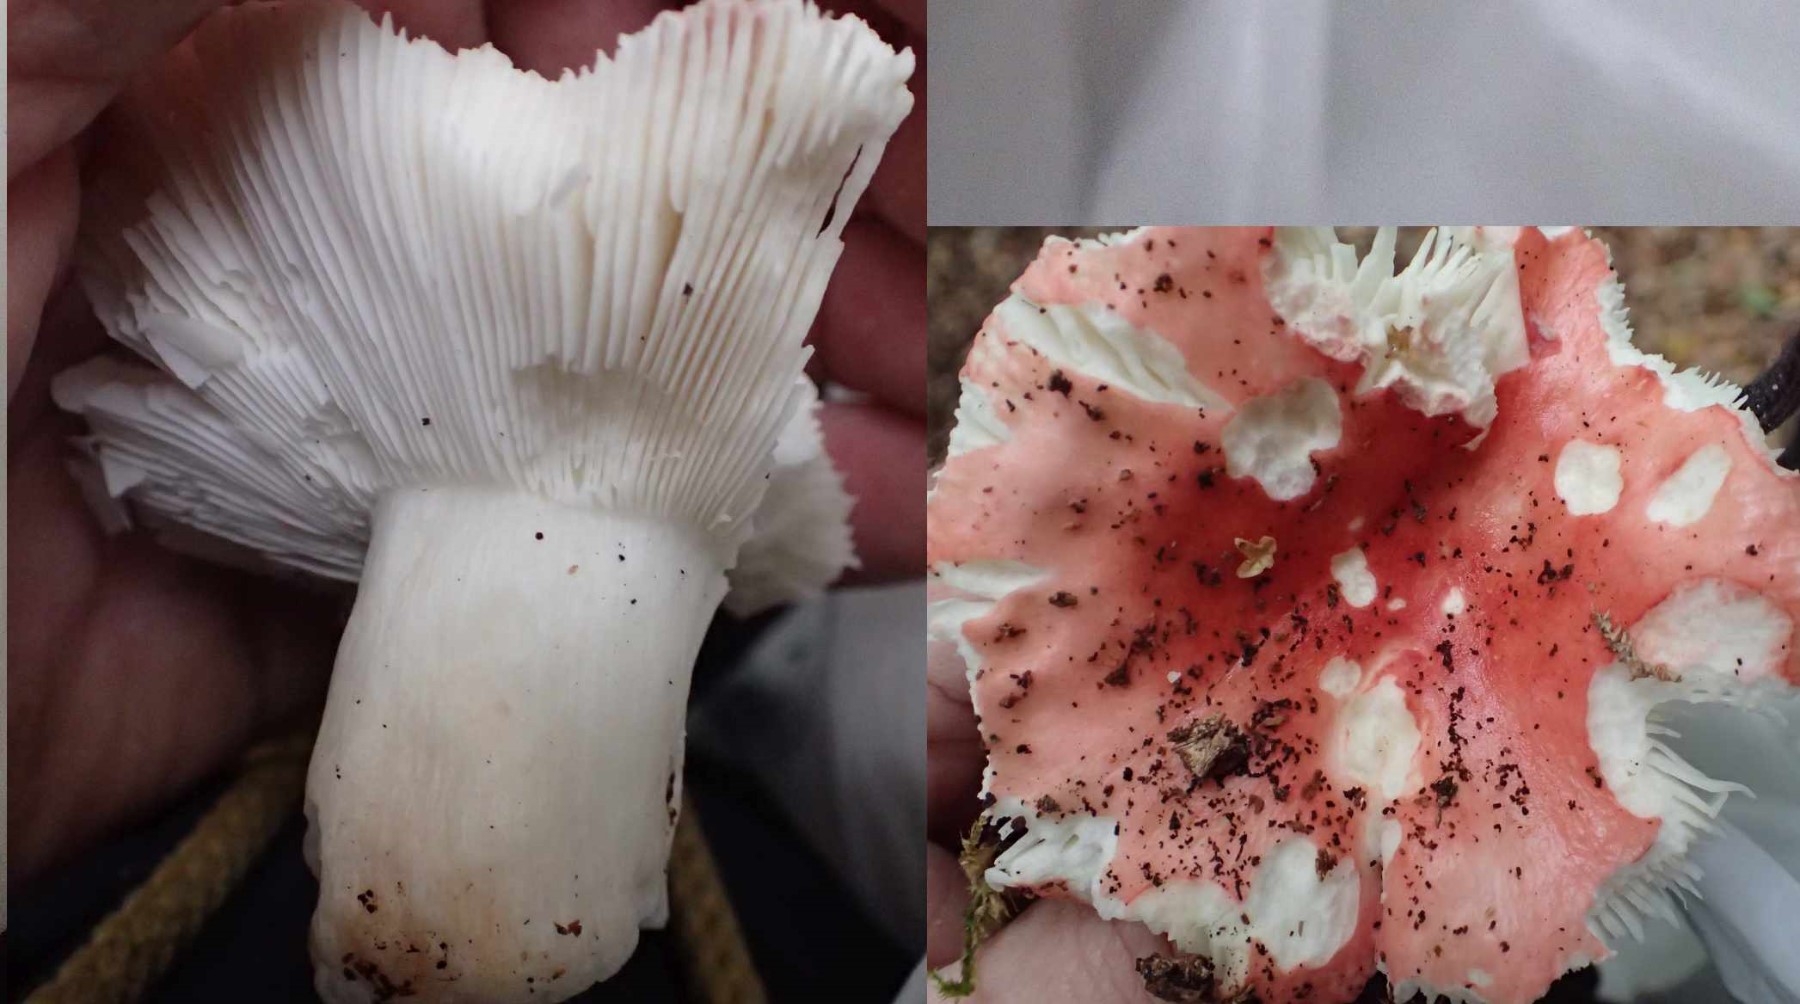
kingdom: Fungi
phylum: Basidiomycota
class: Agaricomycetes
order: Russulales
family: Russulaceae
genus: Russula
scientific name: Russula nobilis
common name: lille gift-skørhat
